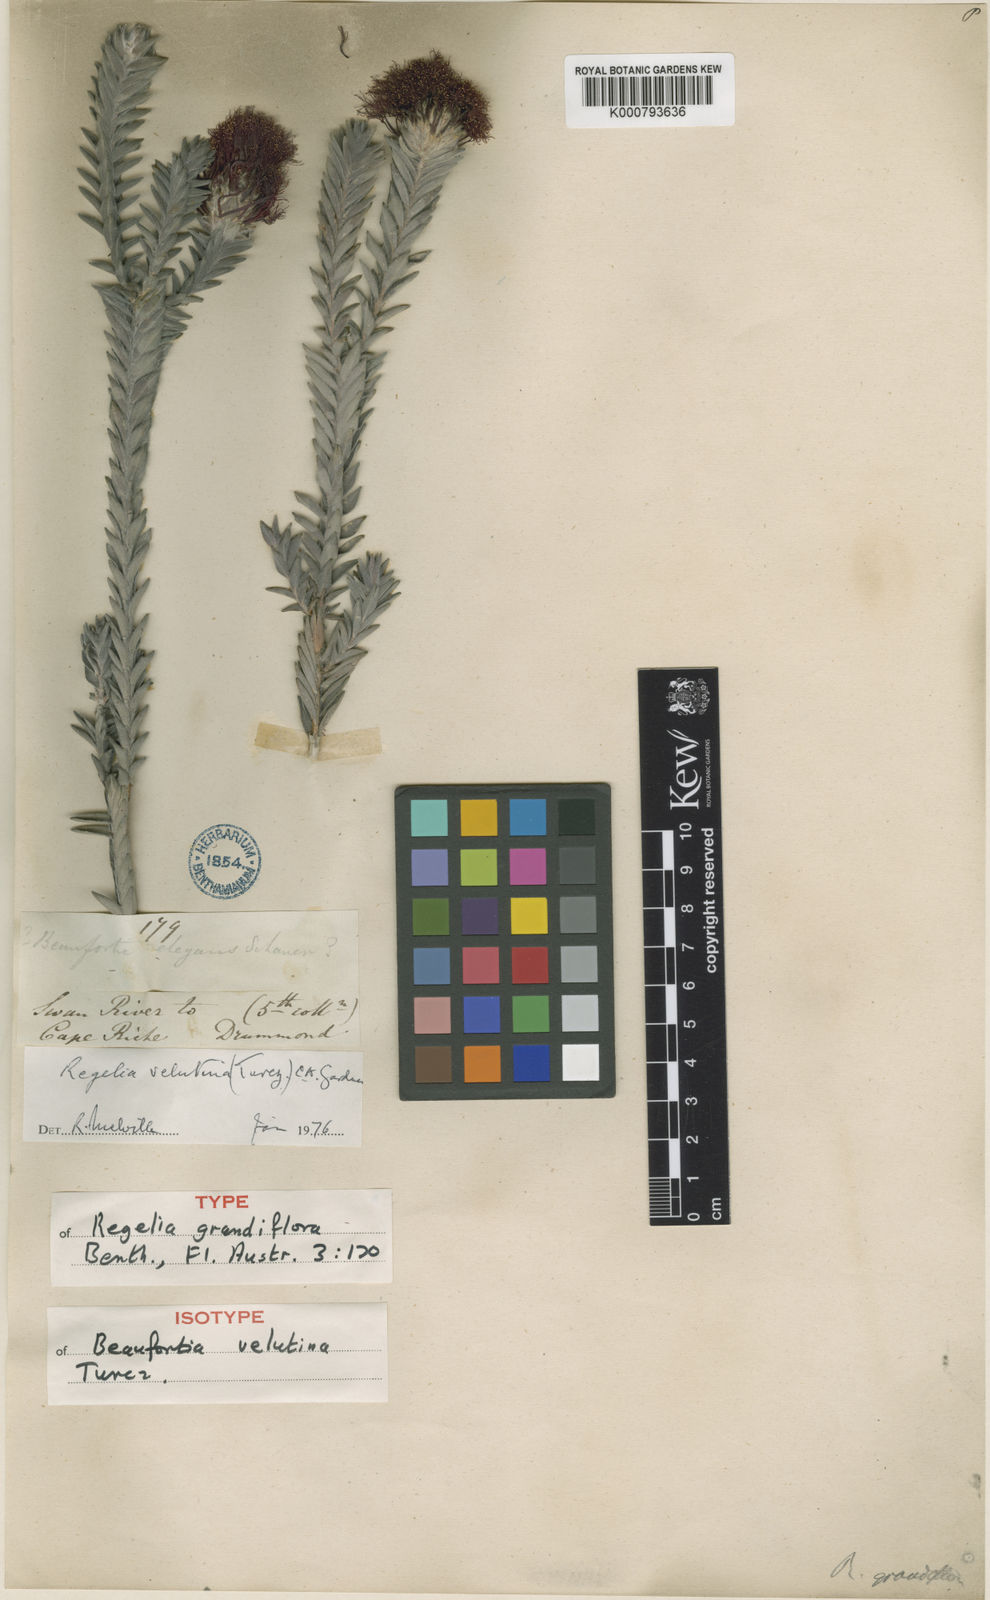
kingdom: Plantae
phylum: Tracheophyta
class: Magnoliopsida
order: Myrtales
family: Myrtaceae
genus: Melaleuca
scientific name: Melaleuca velutina
